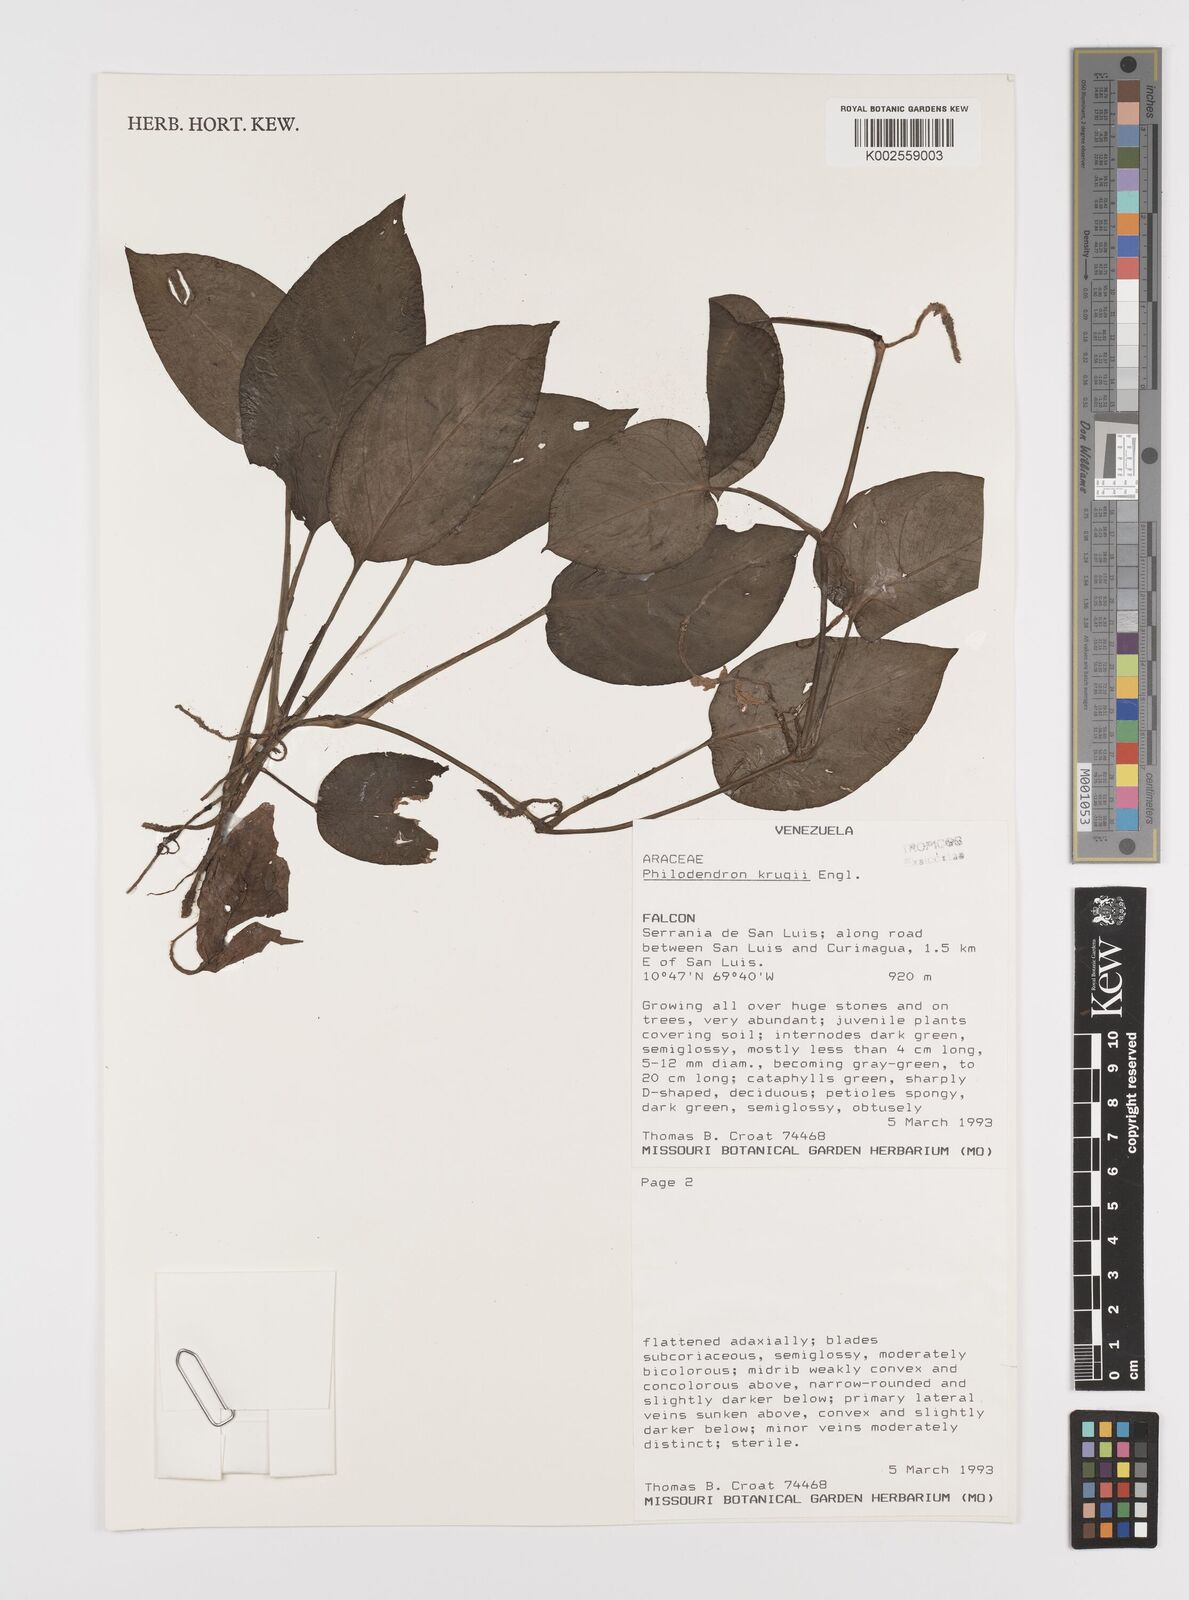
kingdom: Plantae
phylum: Tracheophyta
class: Liliopsida
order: Alismatales
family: Araceae
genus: Philodendron
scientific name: Philodendron krugii
